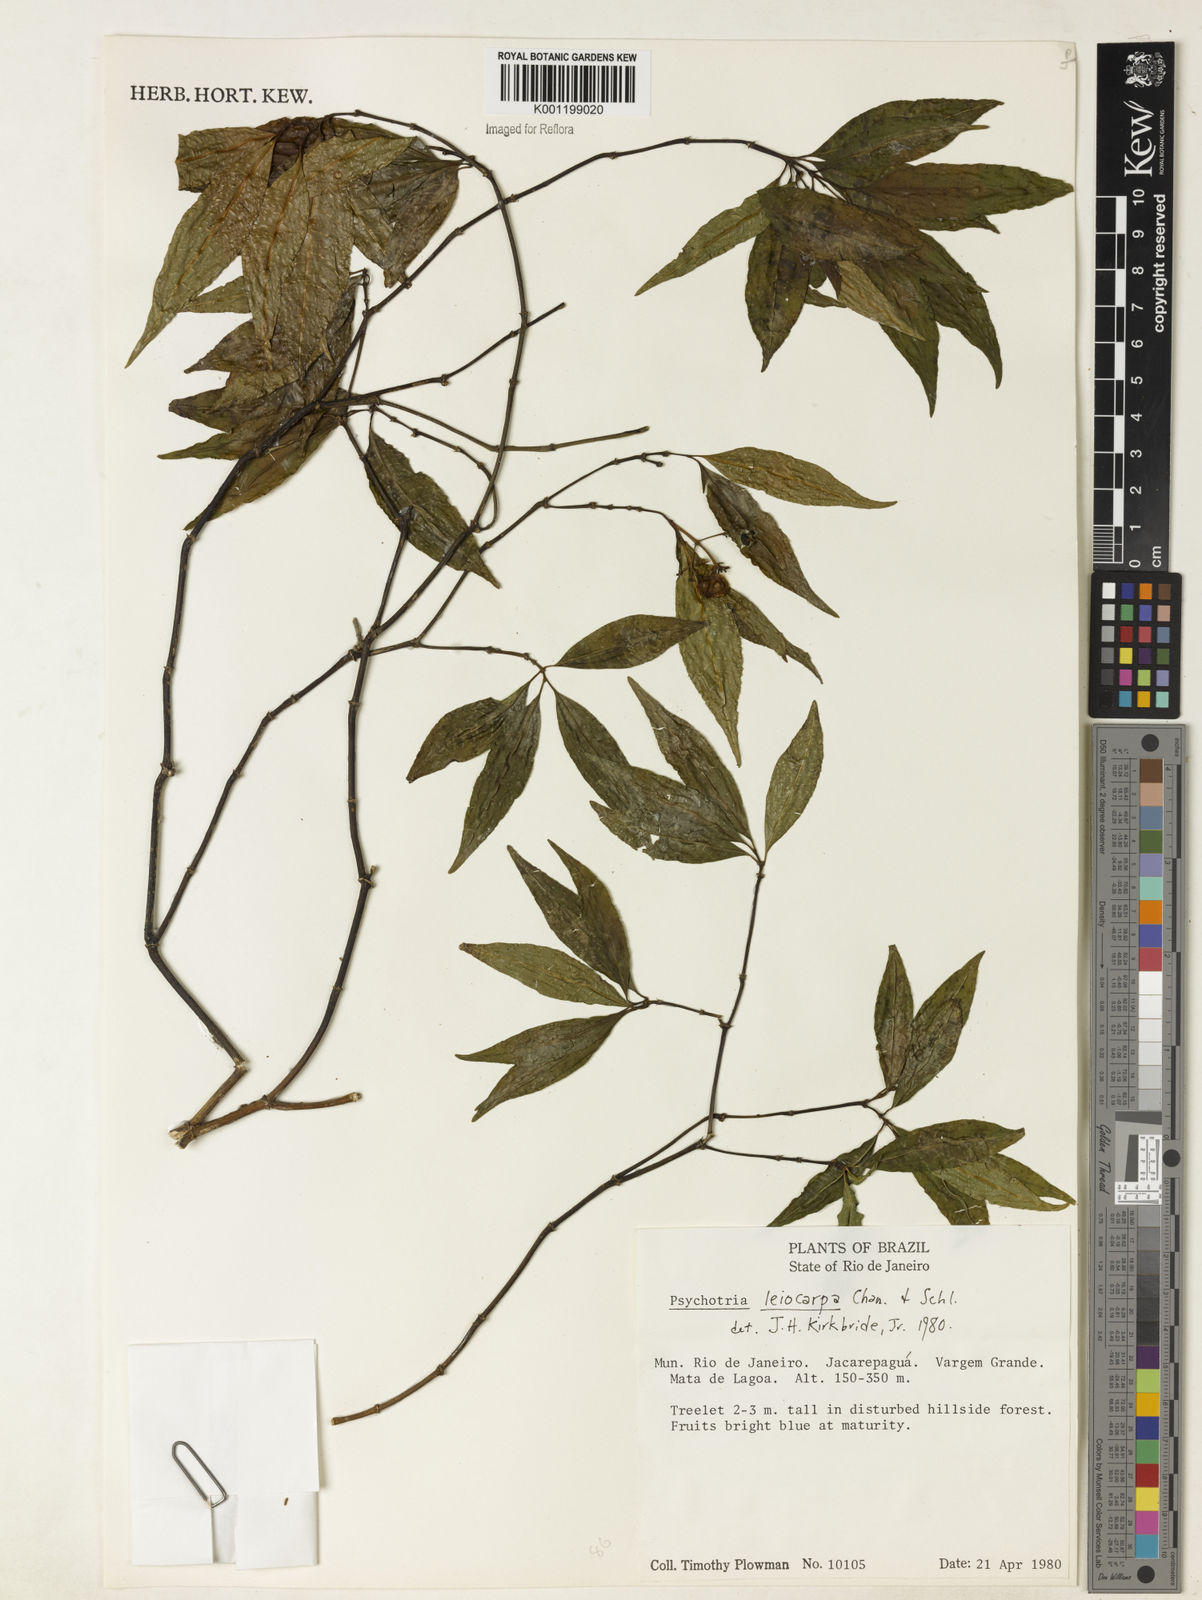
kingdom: Plantae
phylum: Tracheophyta
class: Magnoliopsida
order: Gentianales
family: Rubiaceae
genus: Psychotria
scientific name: Psychotria leiocarpa
